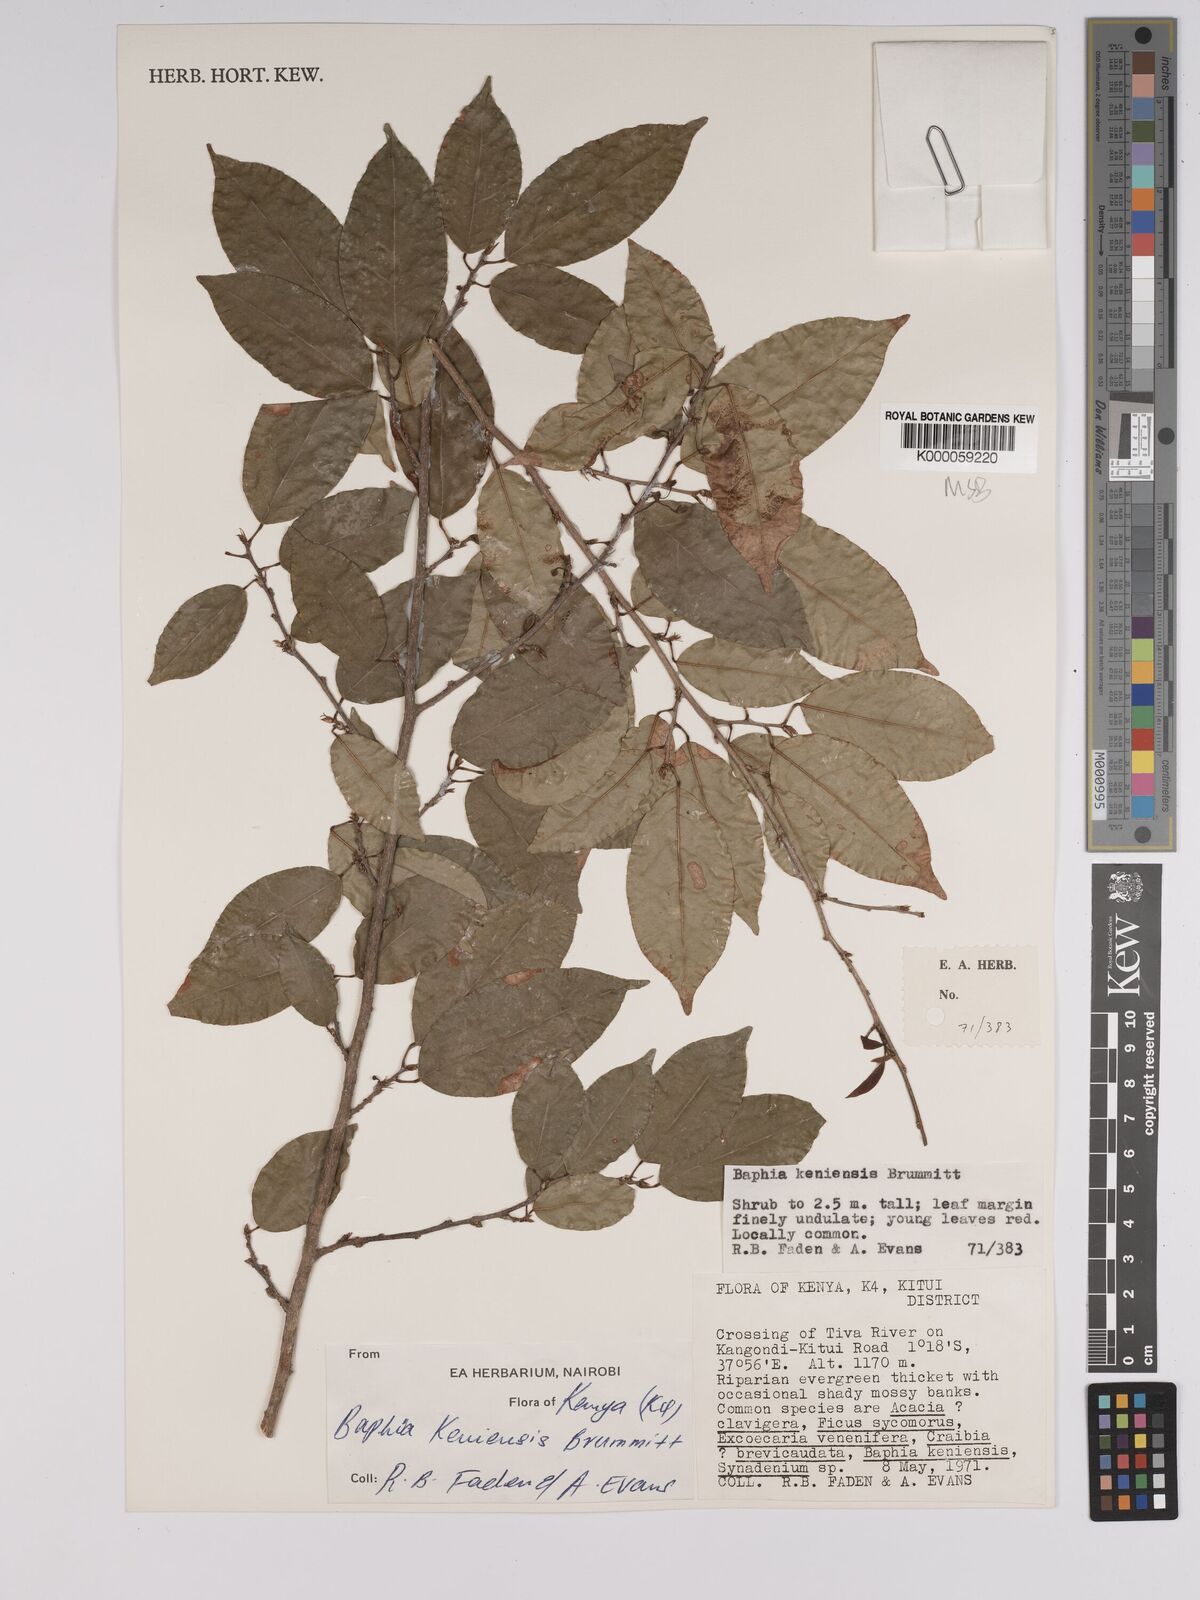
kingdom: Plantae
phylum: Tracheophyta
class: Magnoliopsida
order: Fabales
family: Fabaceae
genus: Baphia
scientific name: Baphia longipedicellata
